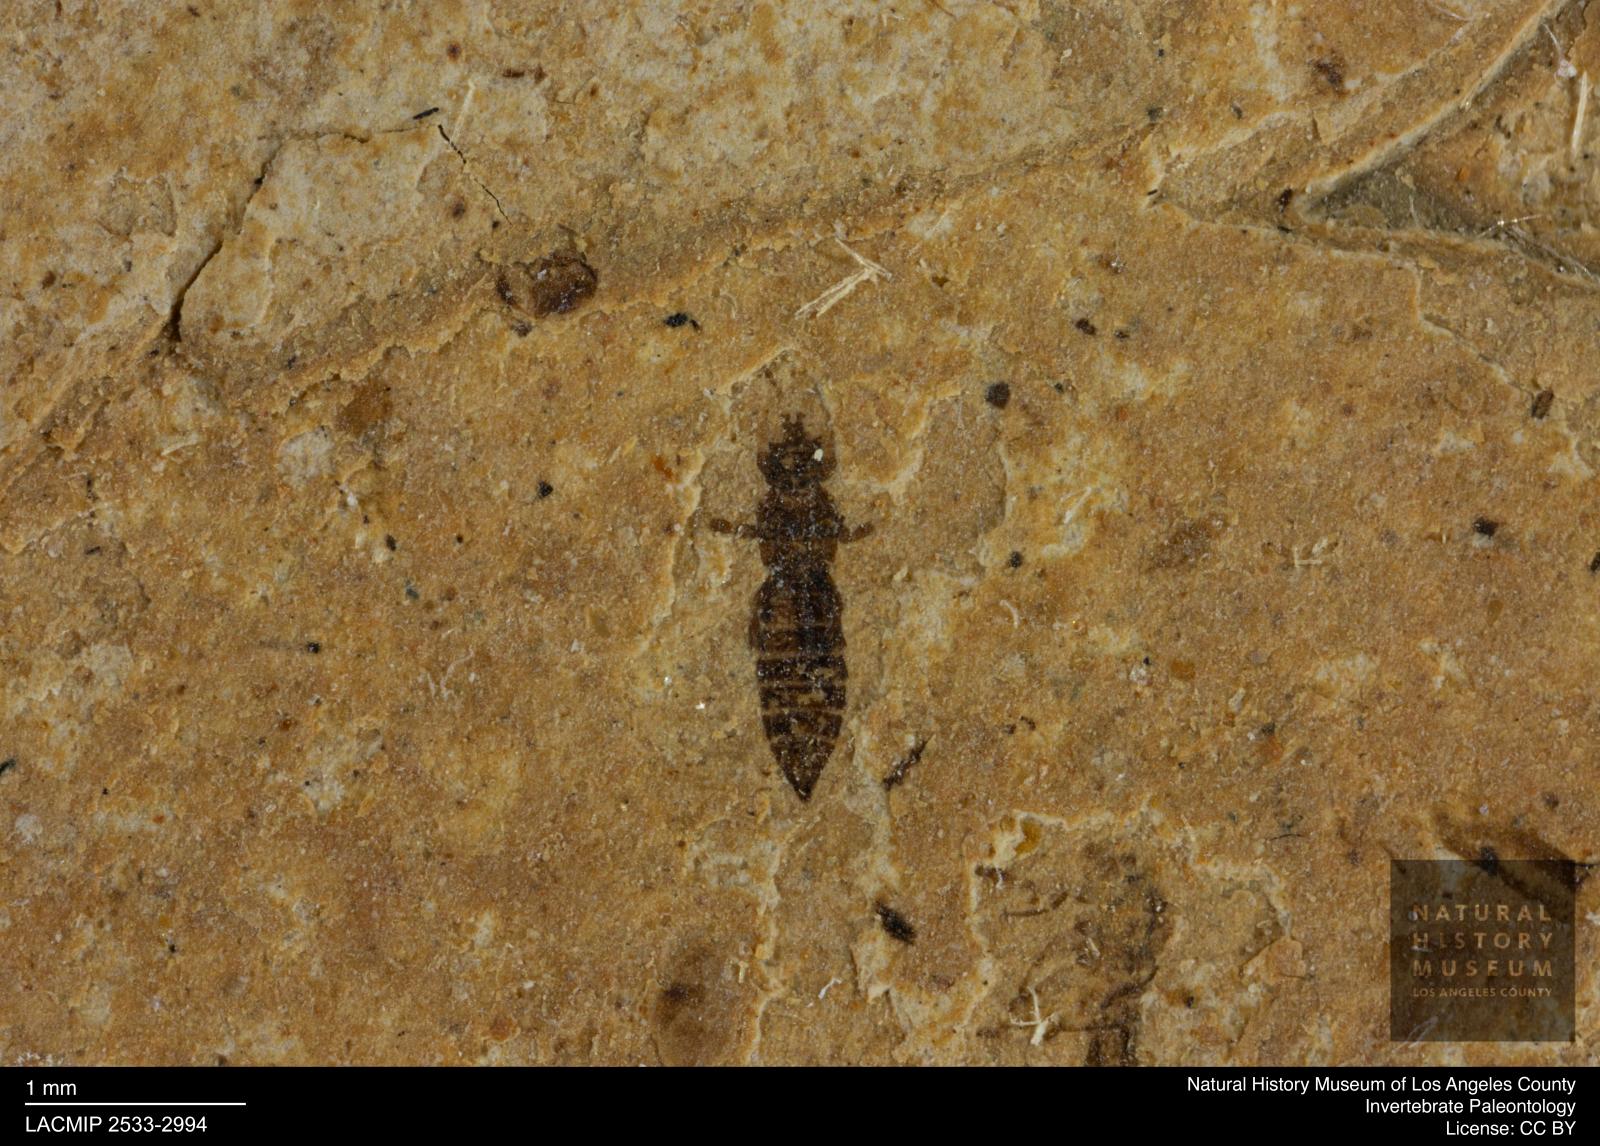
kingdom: Animalia
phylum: Arthropoda
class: Insecta
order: Thysanoptera
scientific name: Thysanoptera
